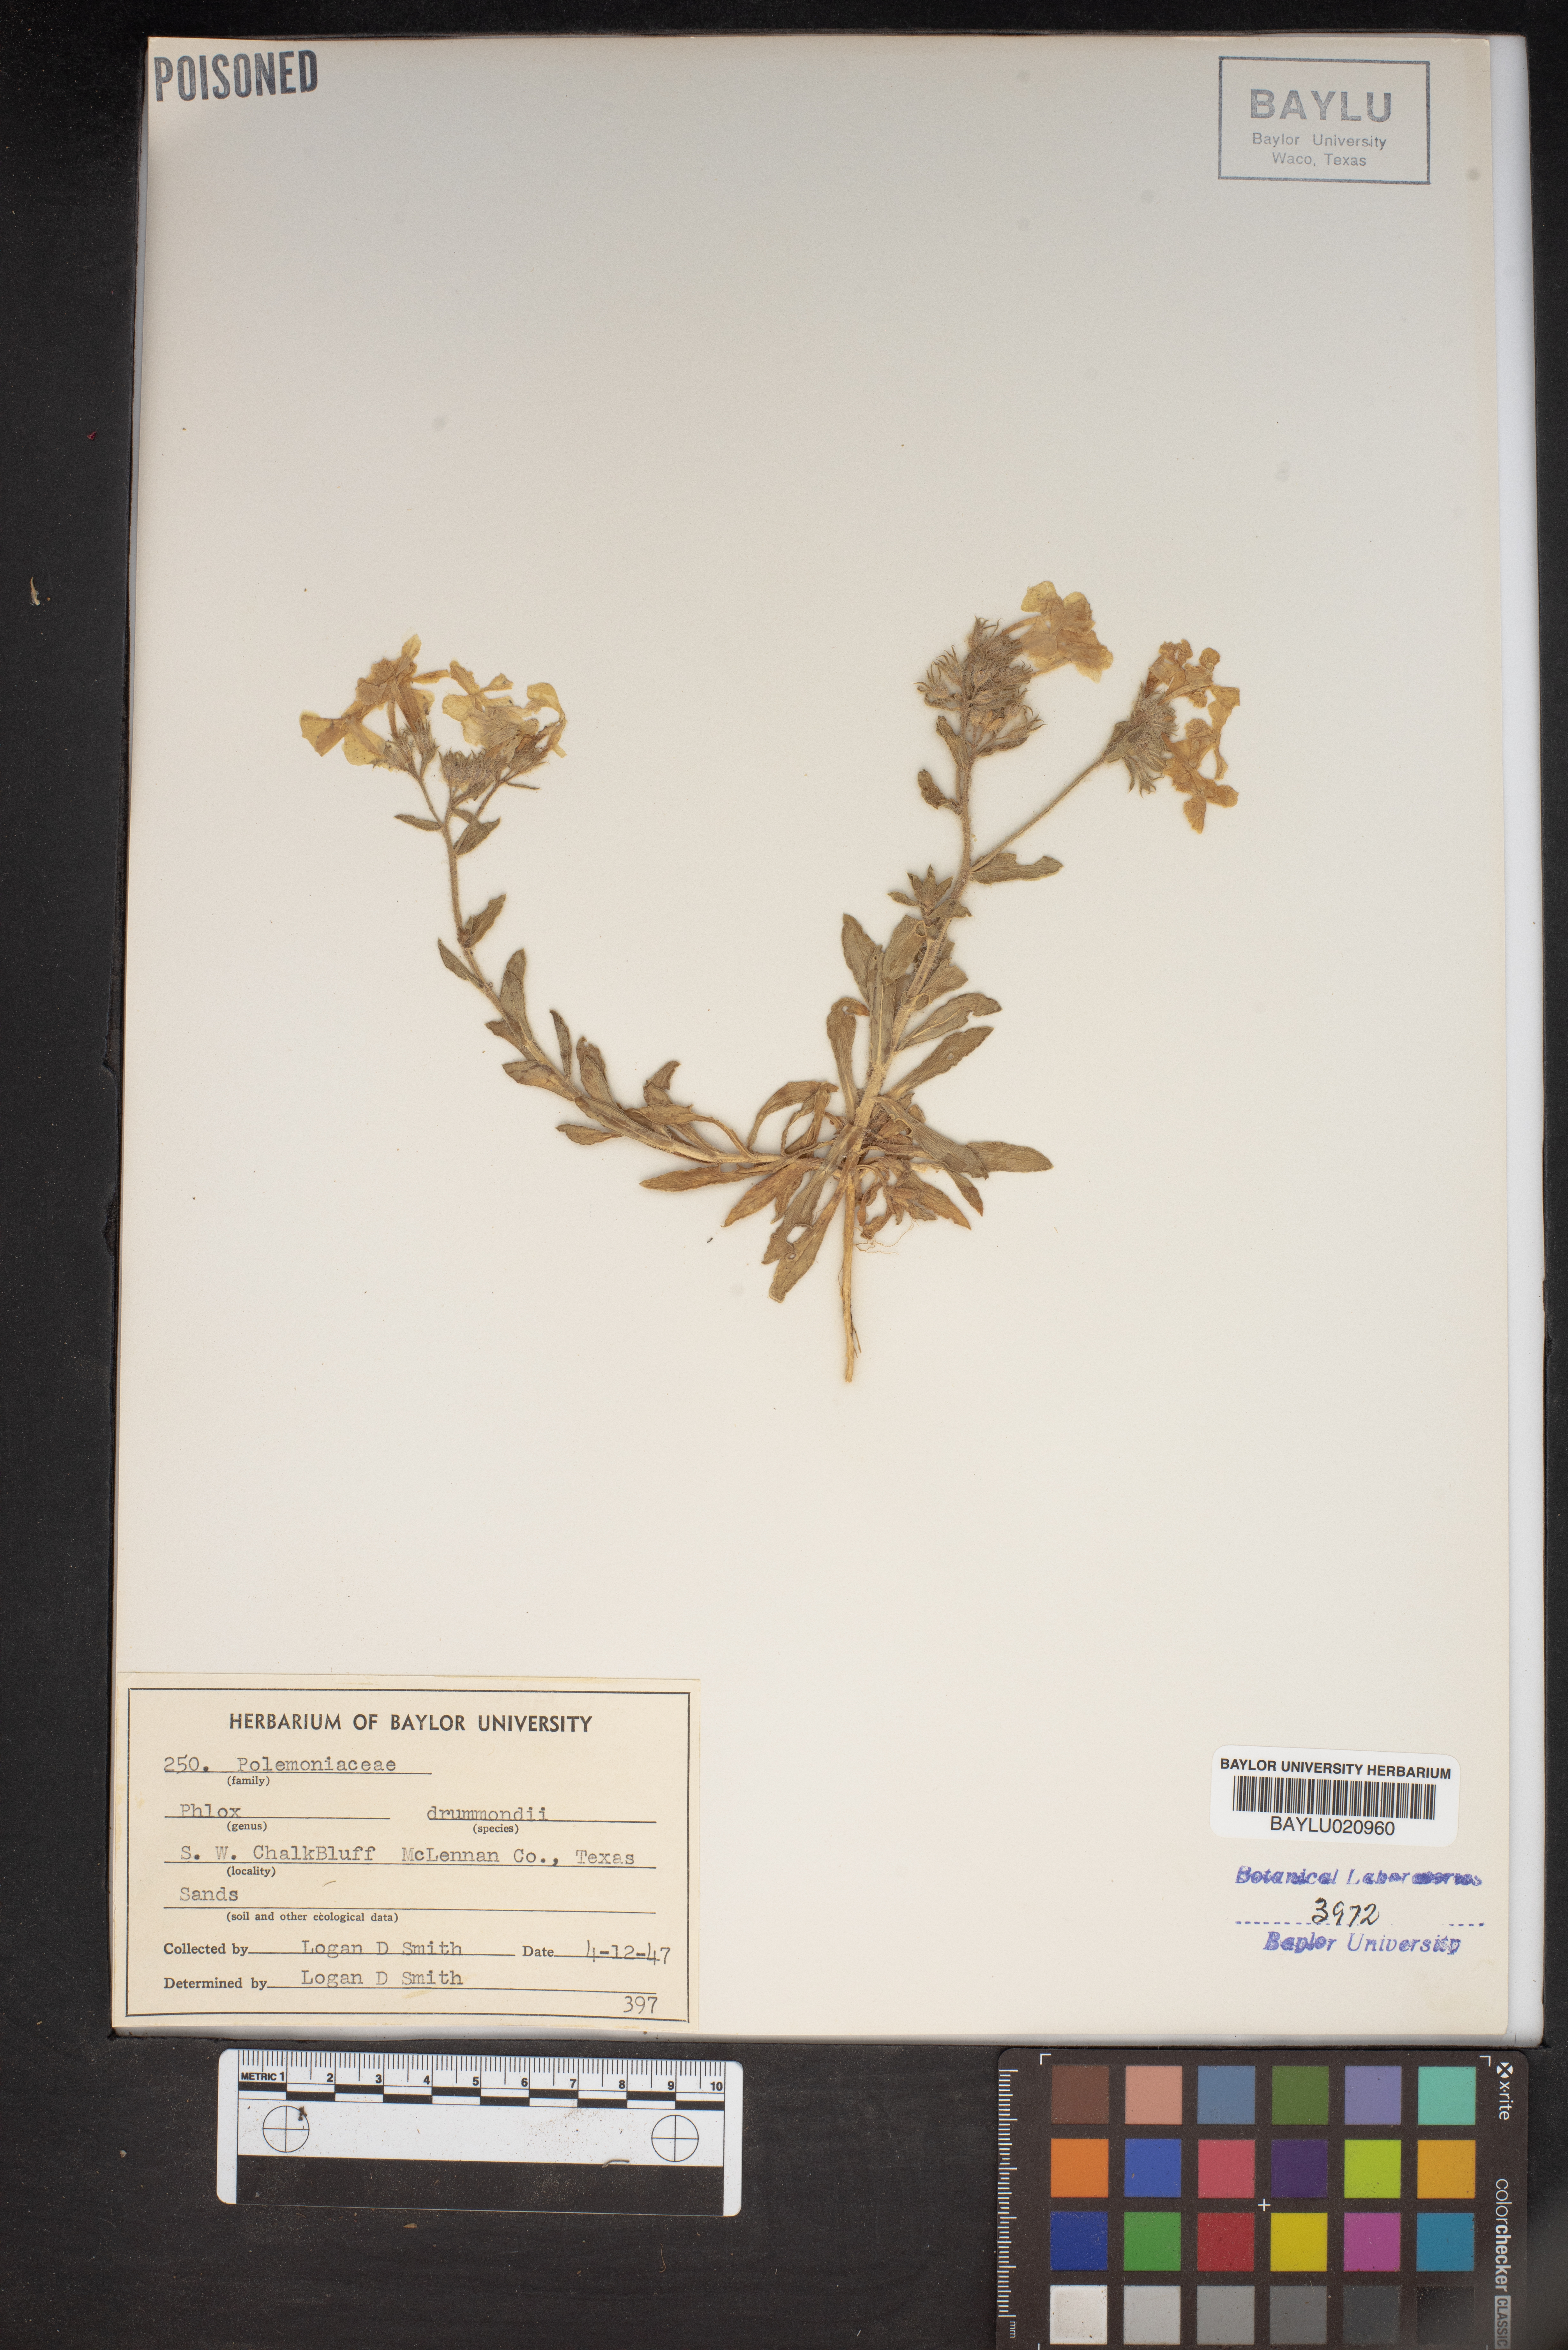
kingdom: Plantae
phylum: Tracheophyta
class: Magnoliopsida
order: Ericales
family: Polemoniaceae
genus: Phlox
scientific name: Phlox drummondii
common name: Drummond's phlox
